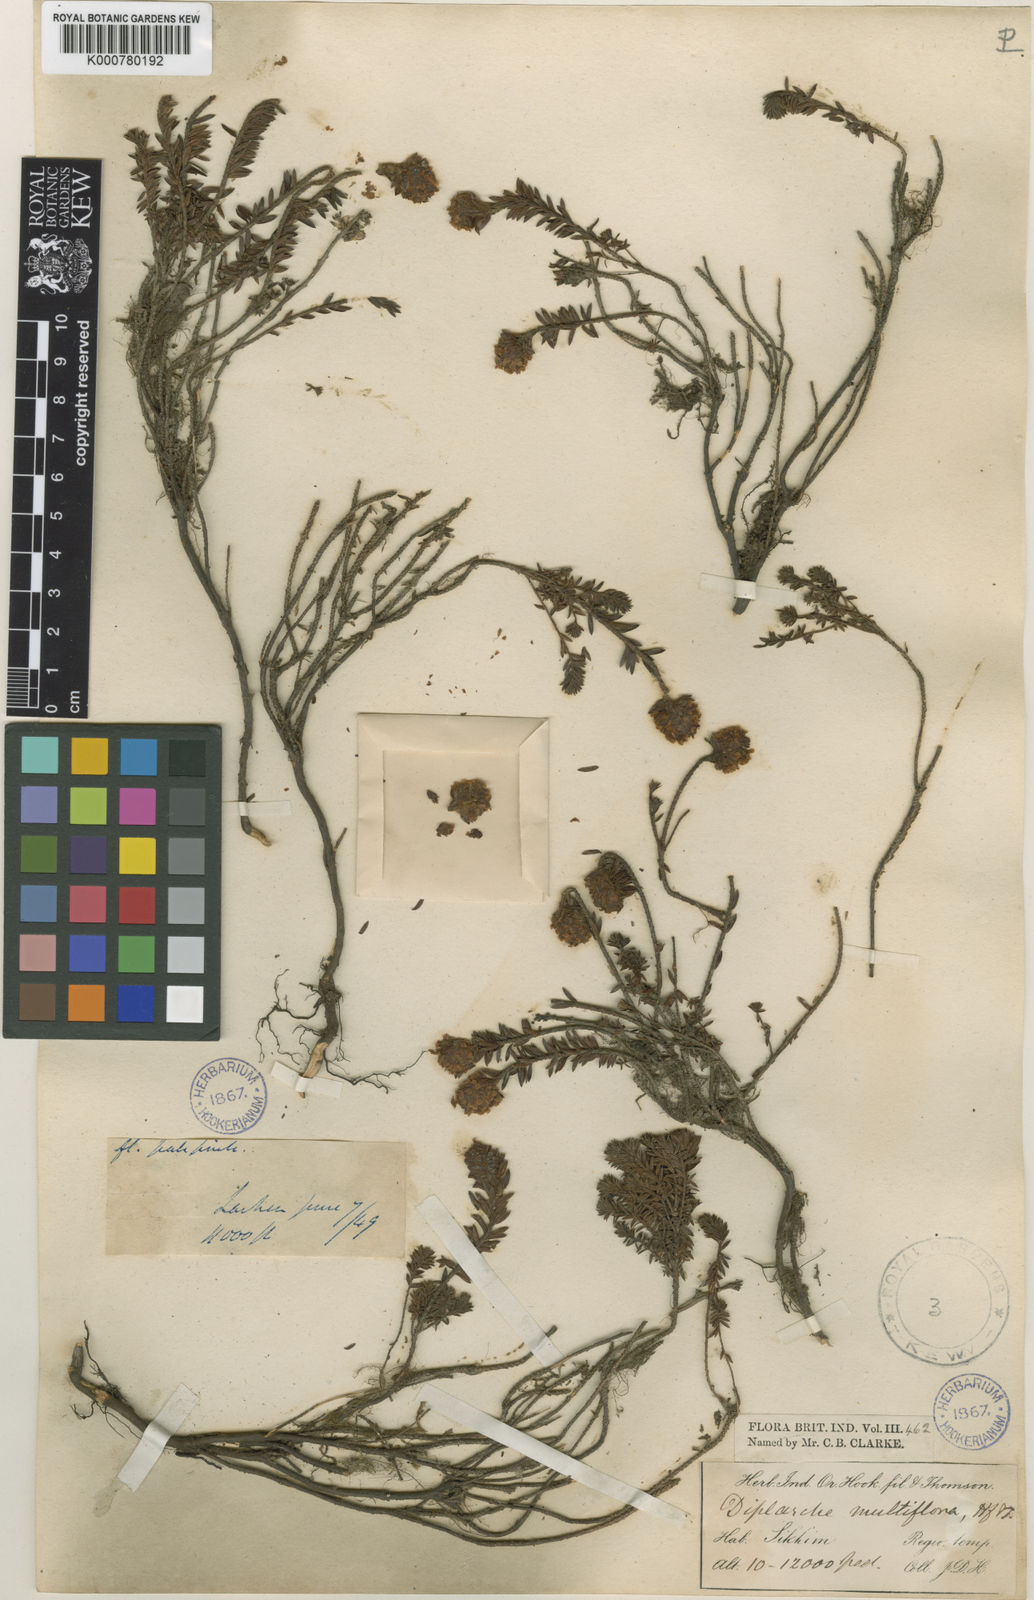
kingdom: Plantae
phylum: Tracheophyta
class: Magnoliopsida
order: Ericales
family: Ericaceae
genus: Rhododendron
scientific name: Rhododendron chamberlainii
